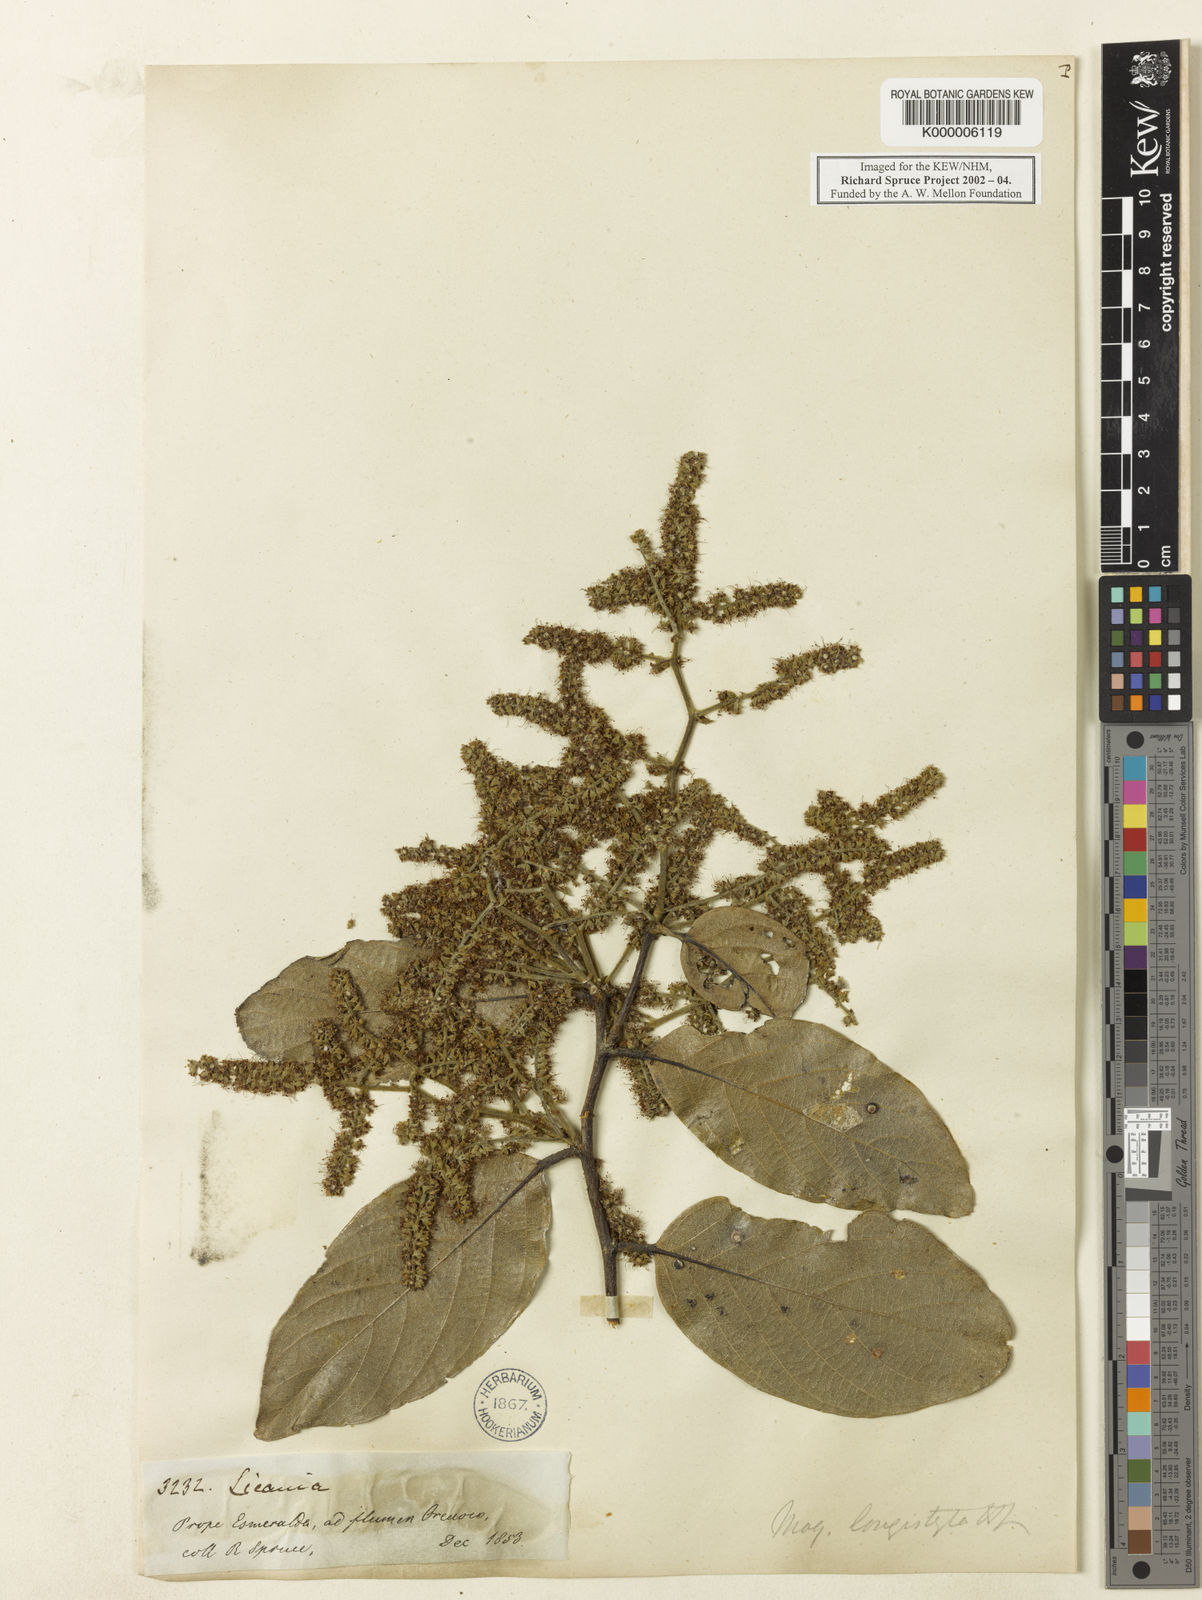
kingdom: Plantae
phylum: Tracheophyta
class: Magnoliopsida
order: Malpighiales
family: Chrysobalanaceae
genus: Leptobalanus
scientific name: Leptobalanus longistylus
